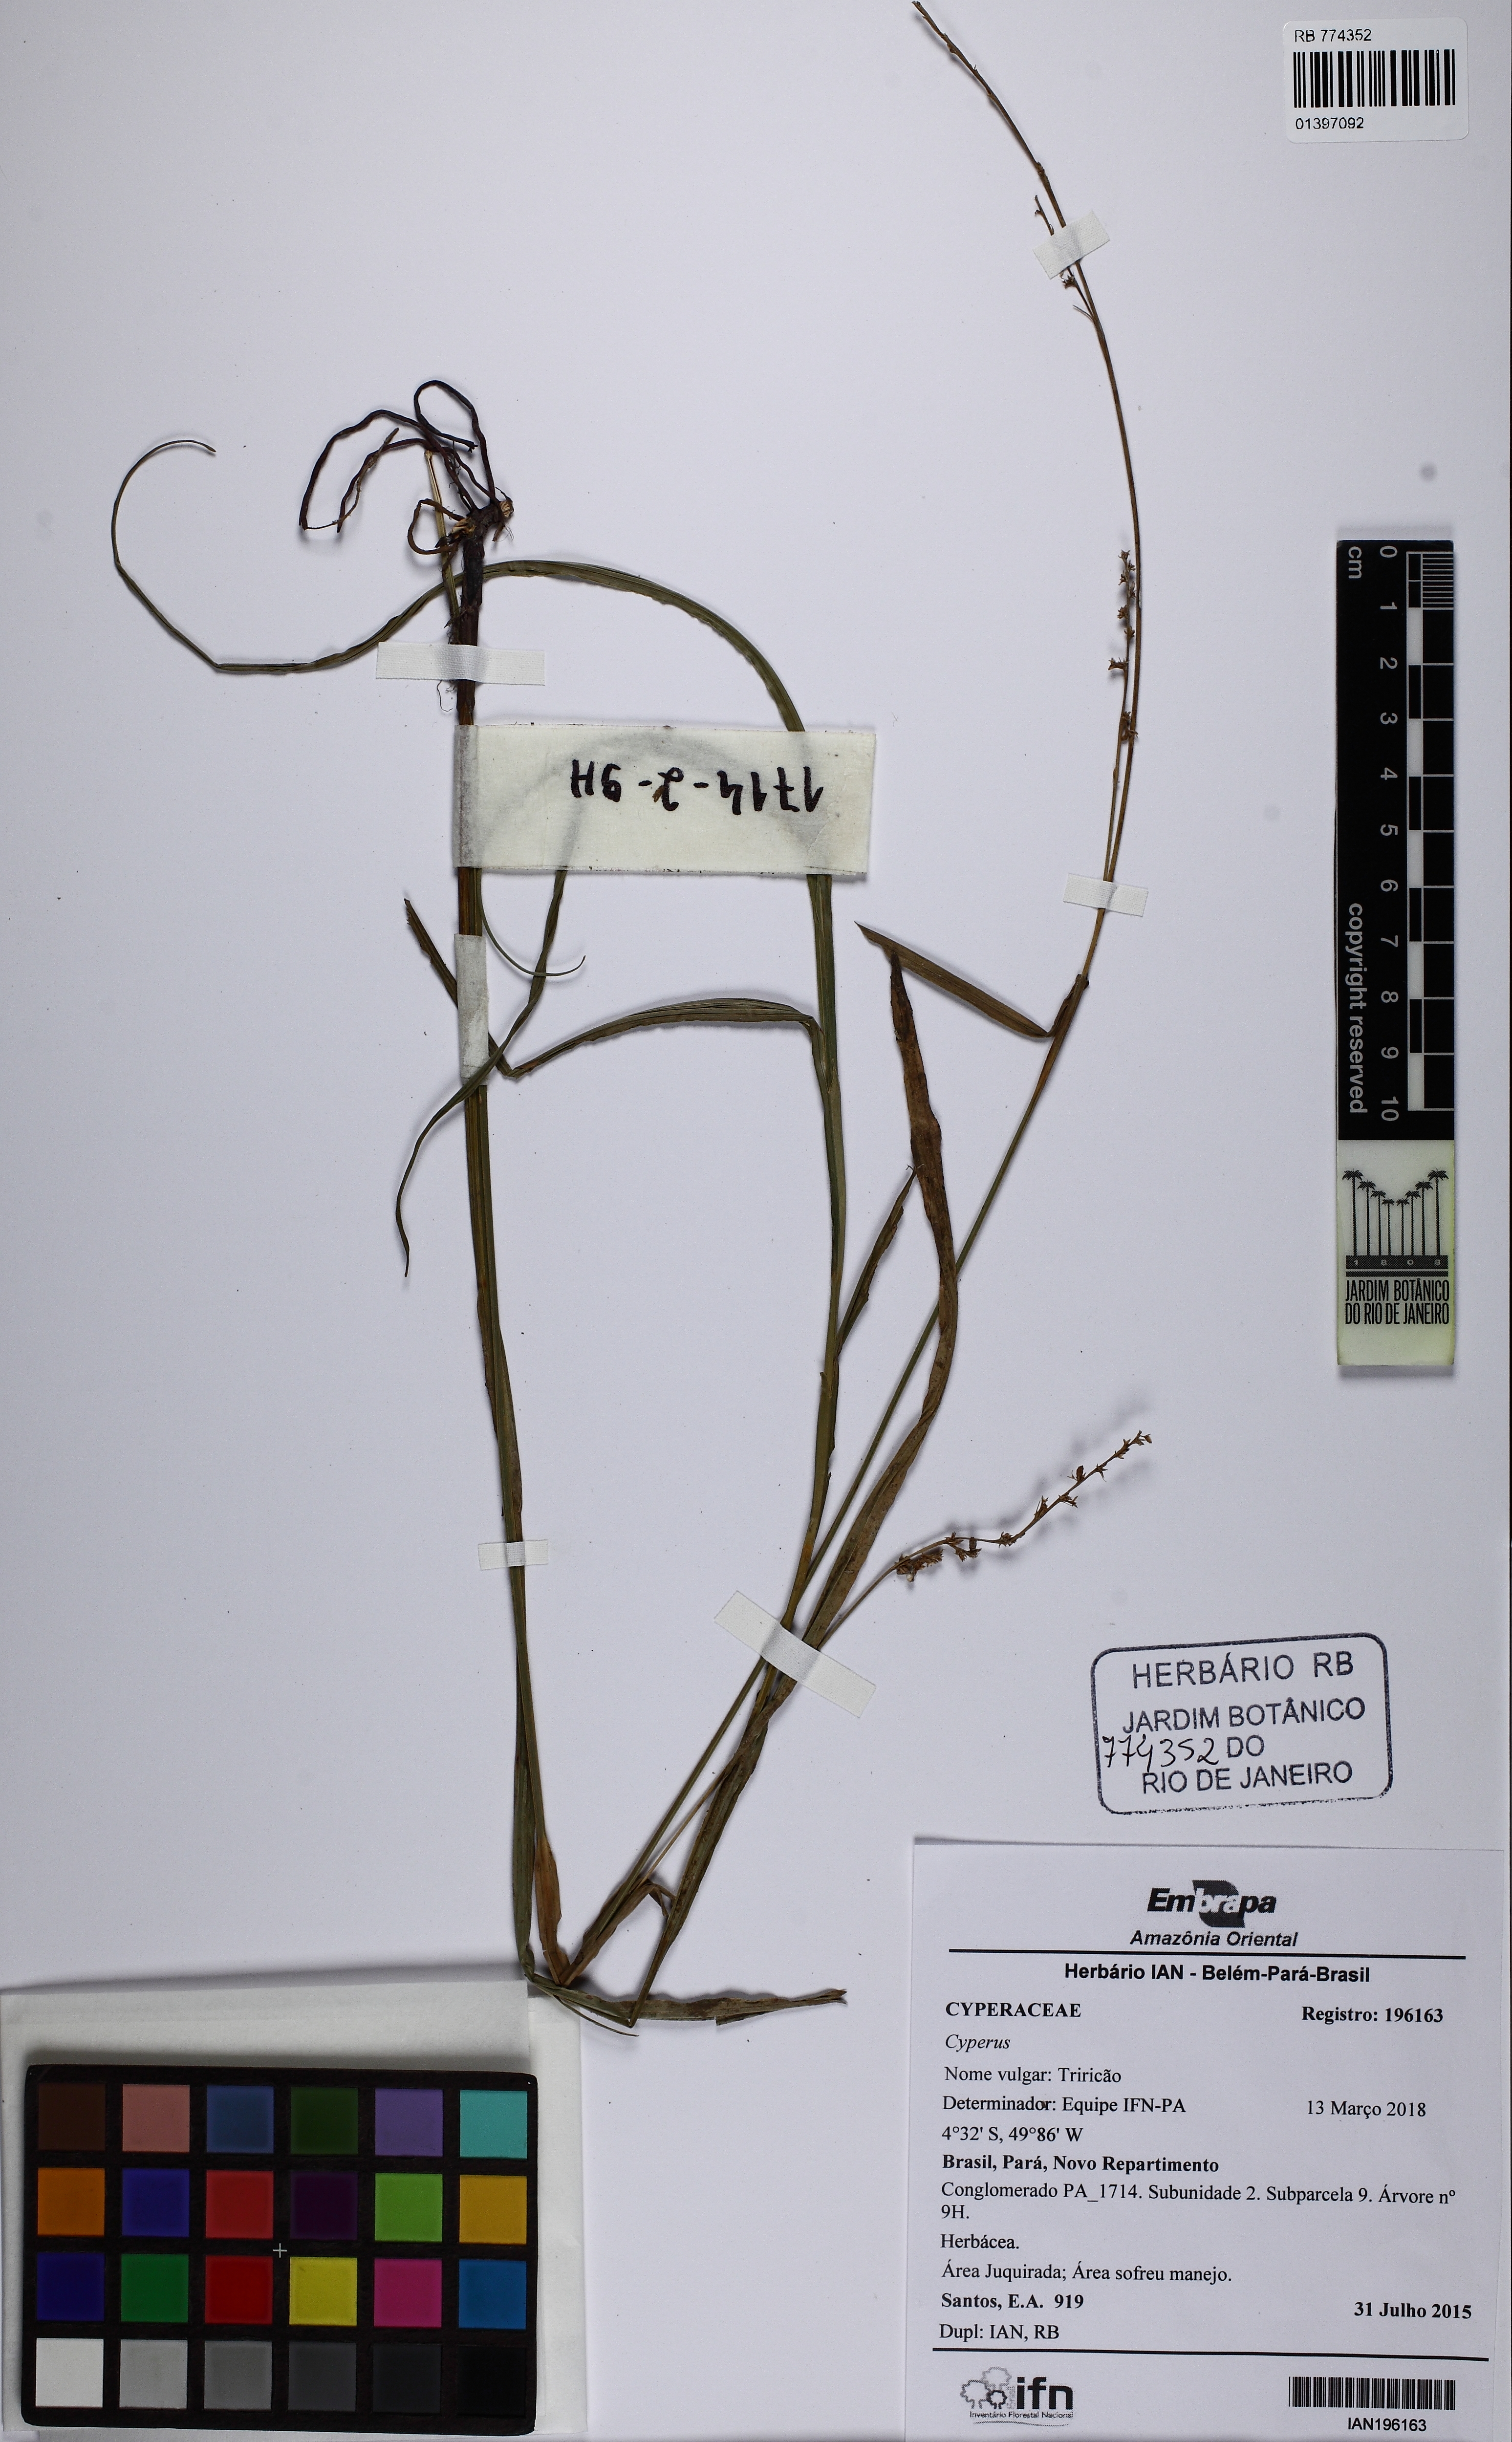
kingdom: Plantae
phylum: Tracheophyta
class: Liliopsida
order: Poales
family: Cyperaceae
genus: Scleria
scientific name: Scleria microcarpa
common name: Tropical nutrush
